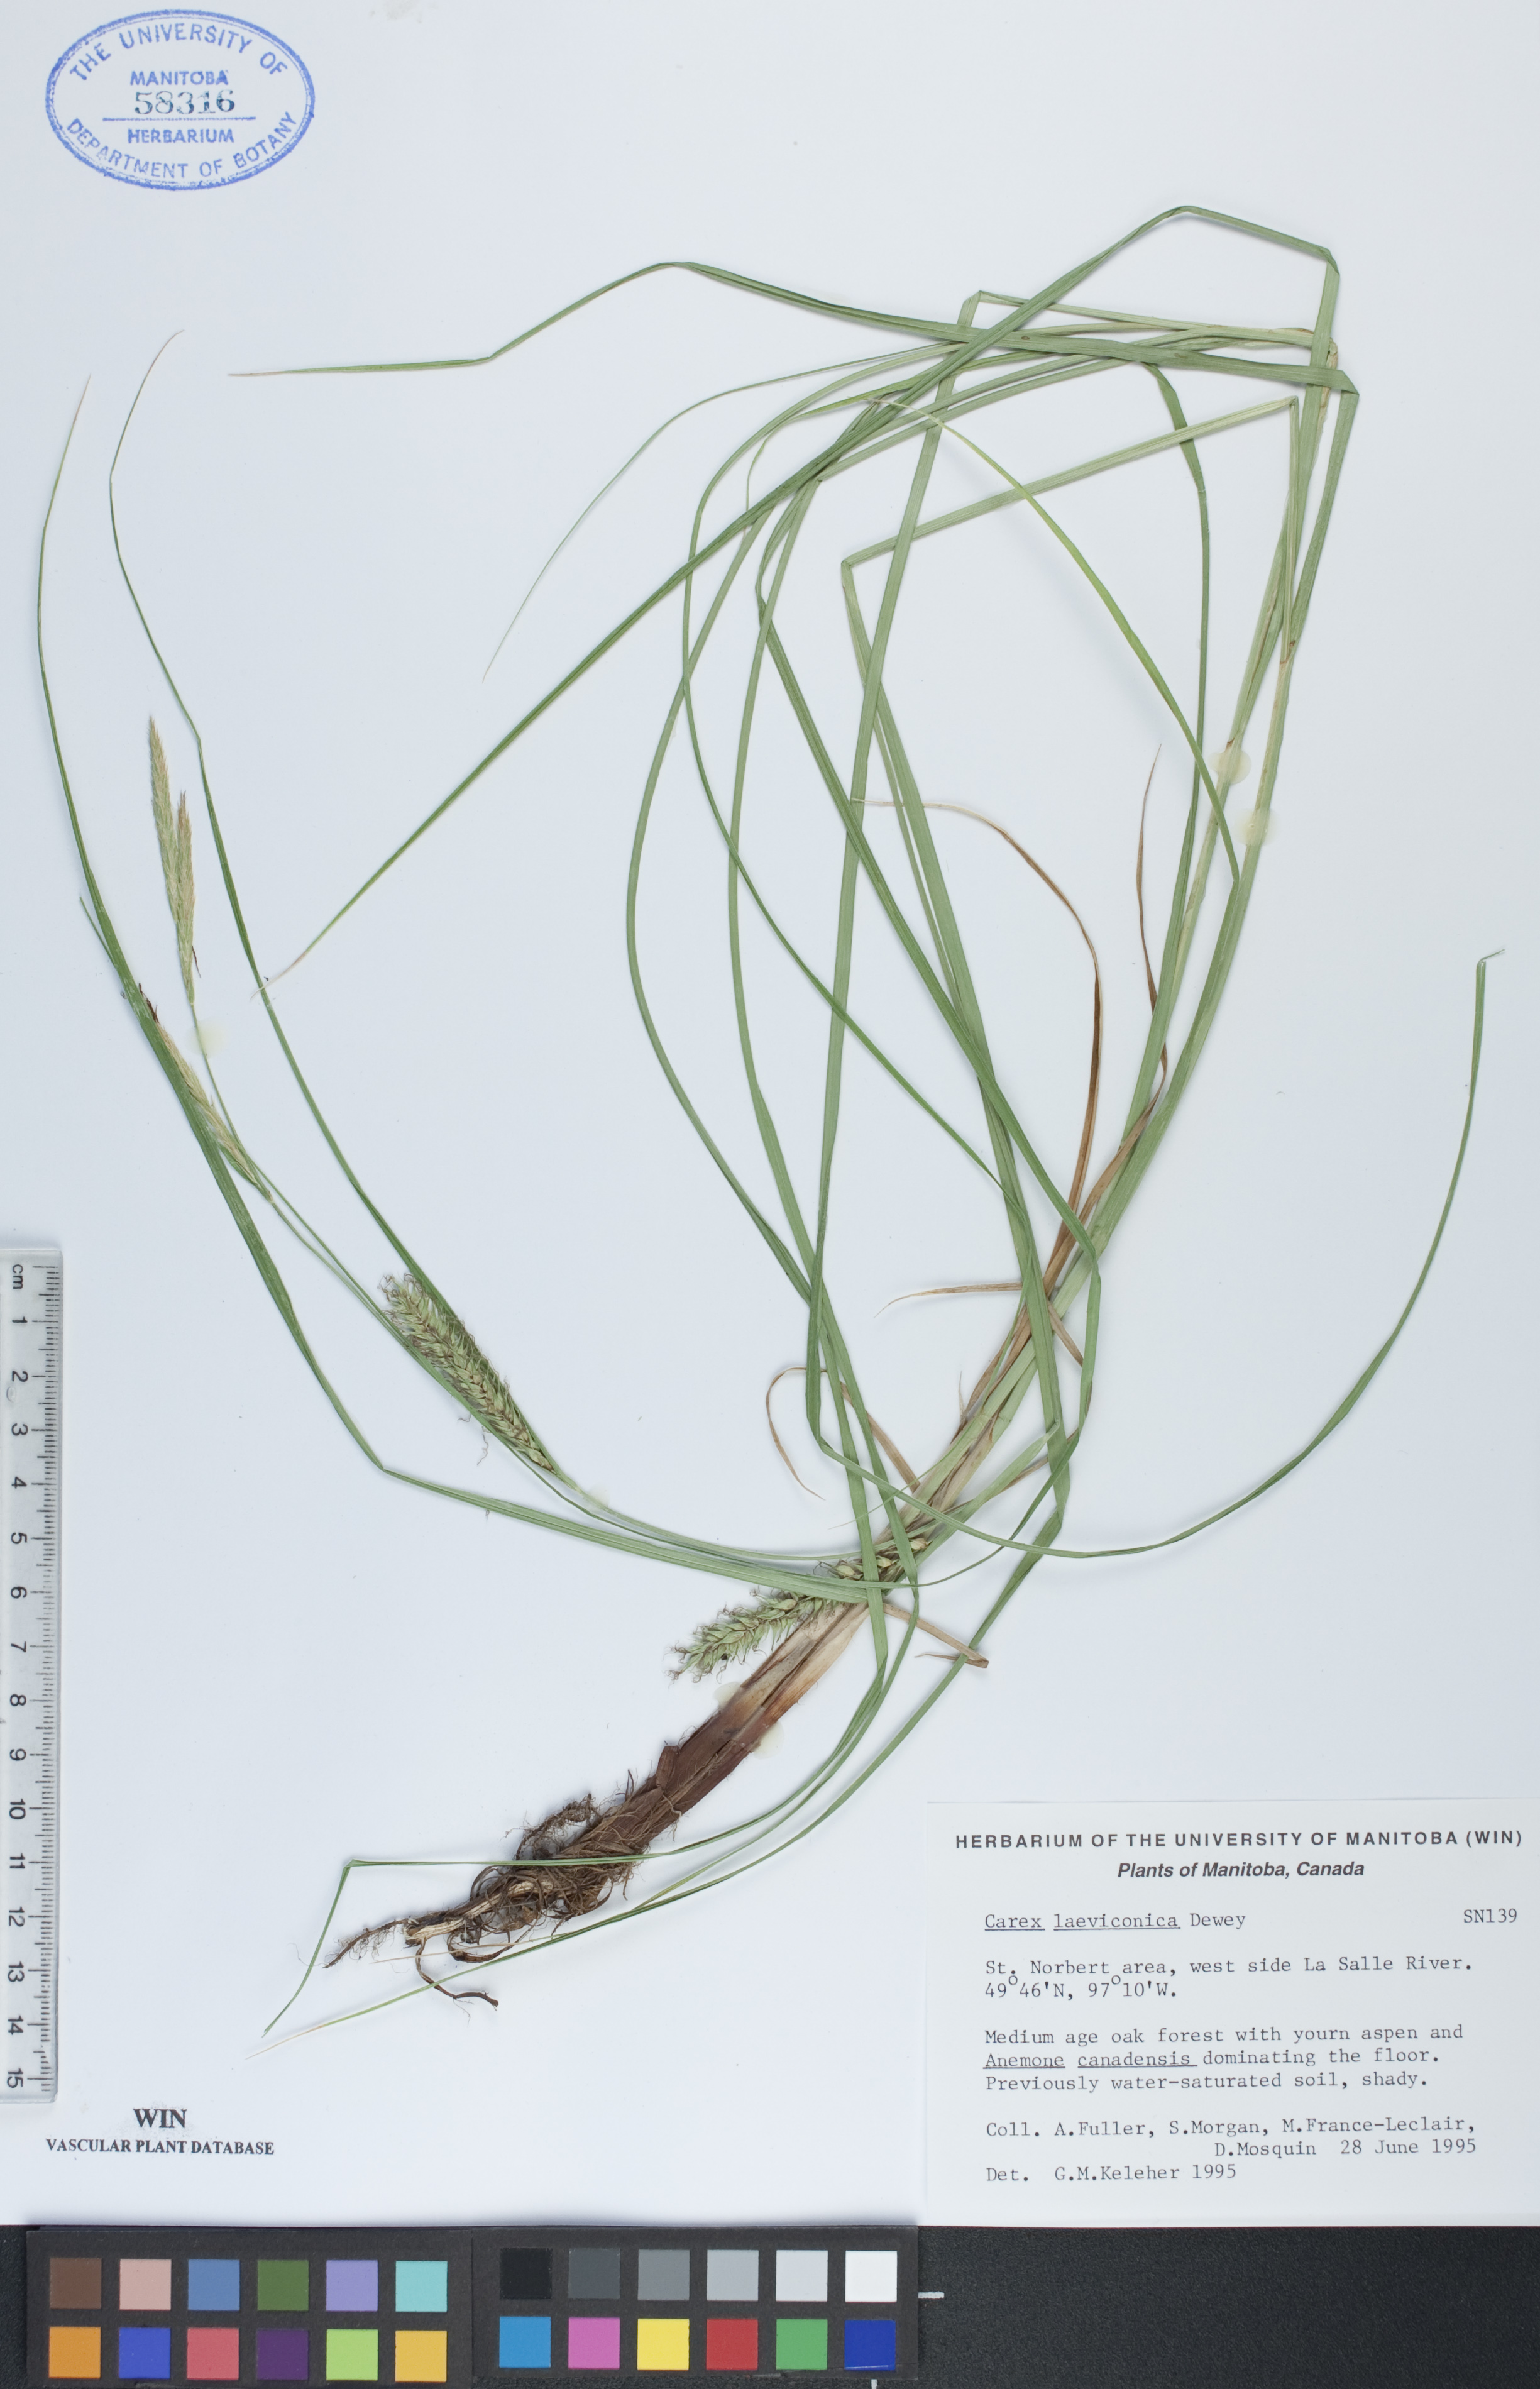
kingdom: Plantae
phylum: Tracheophyta
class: Liliopsida
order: Poales
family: Cyperaceae
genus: Carex
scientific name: Carex laeviconica
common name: Plains slough sedge
